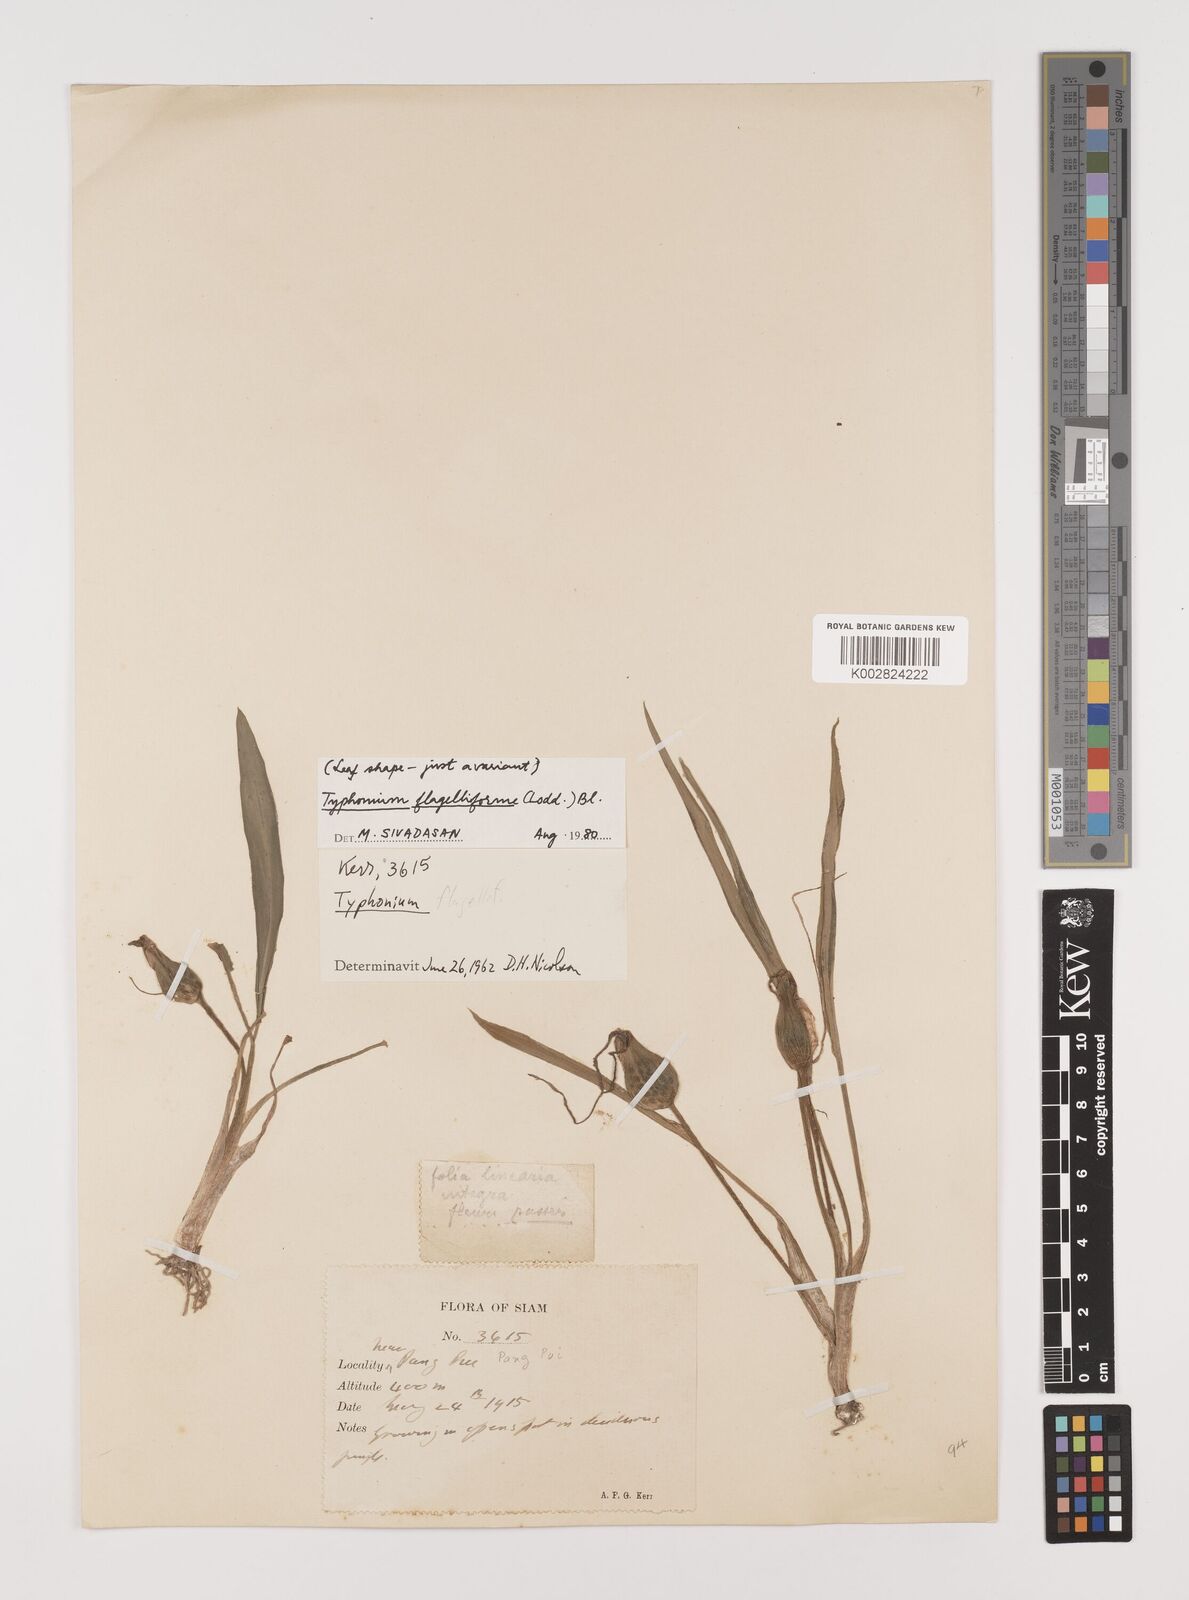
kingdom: Plantae
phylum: Tracheophyta
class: Liliopsida
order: Alismatales
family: Araceae
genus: Typhonium
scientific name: Typhonium flagelliforme
